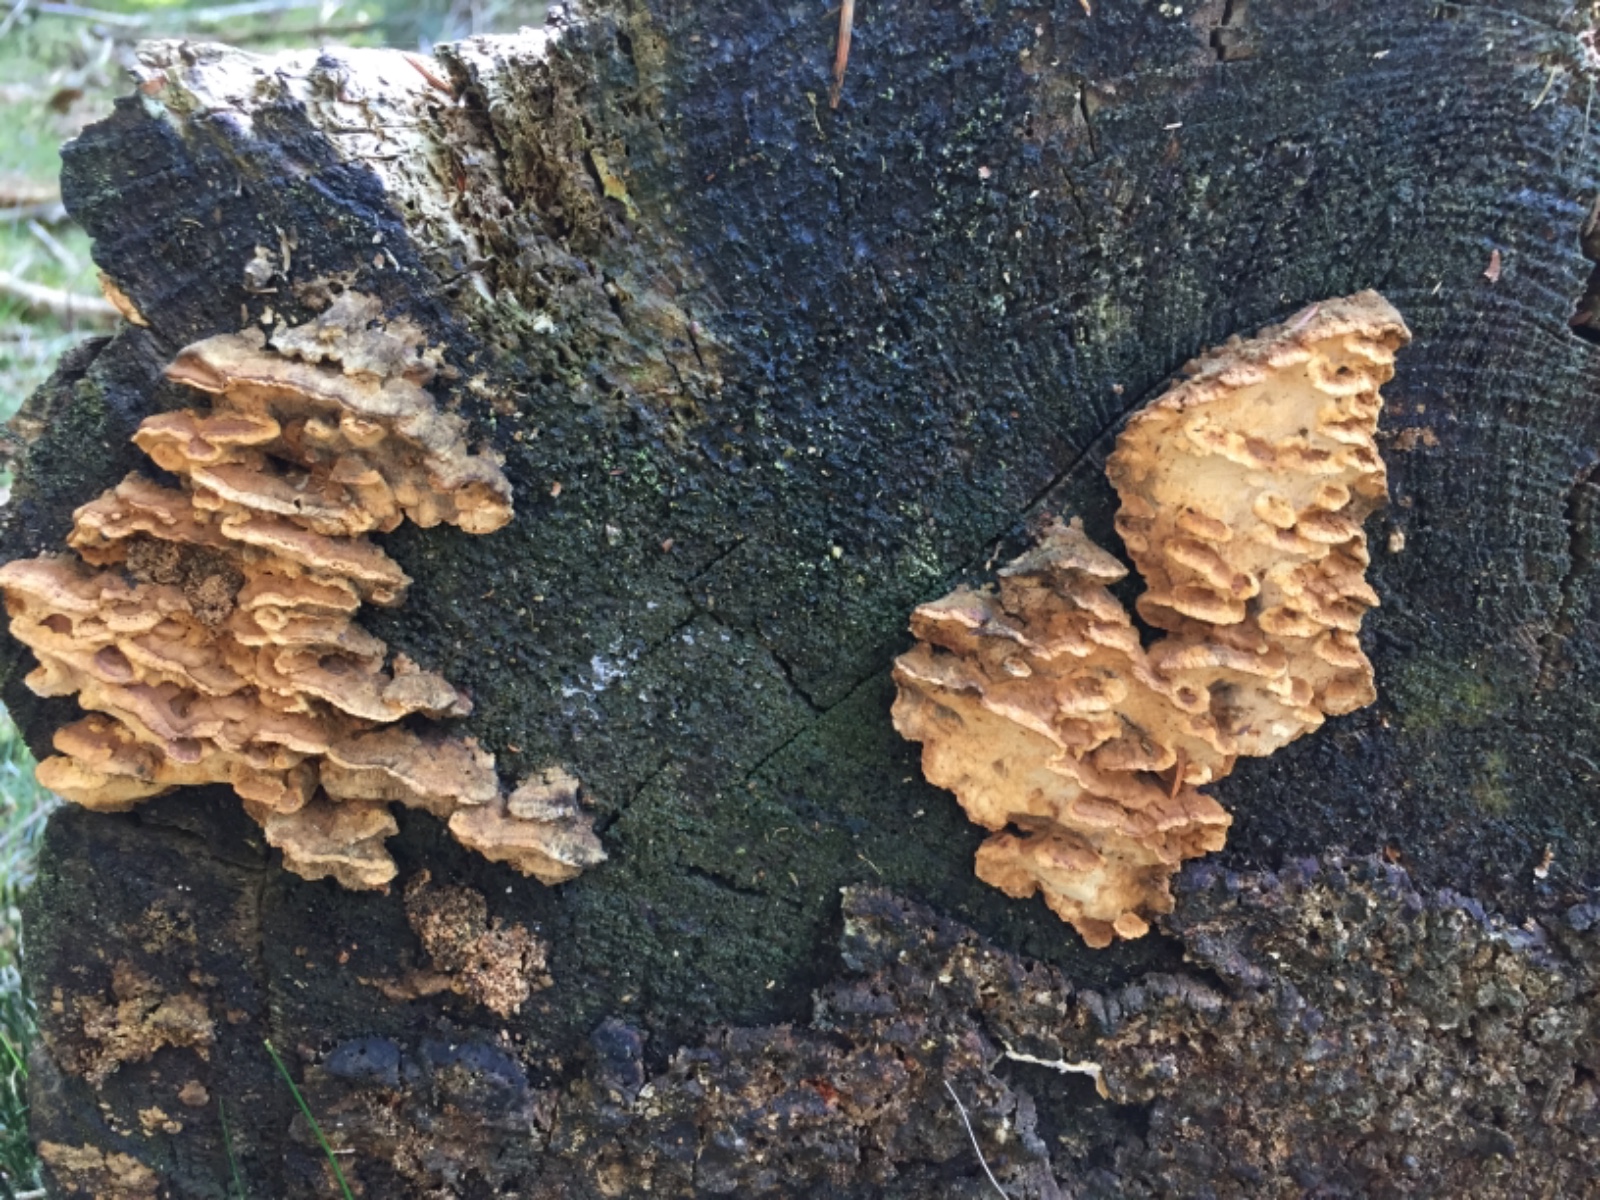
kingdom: Fungi
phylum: Basidiomycota
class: Agaricomycetes
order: Polyporales
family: Fomitopsidaceae
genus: Neoantrodia
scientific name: Neoantrodia serialis
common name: række-sejporesvamp
